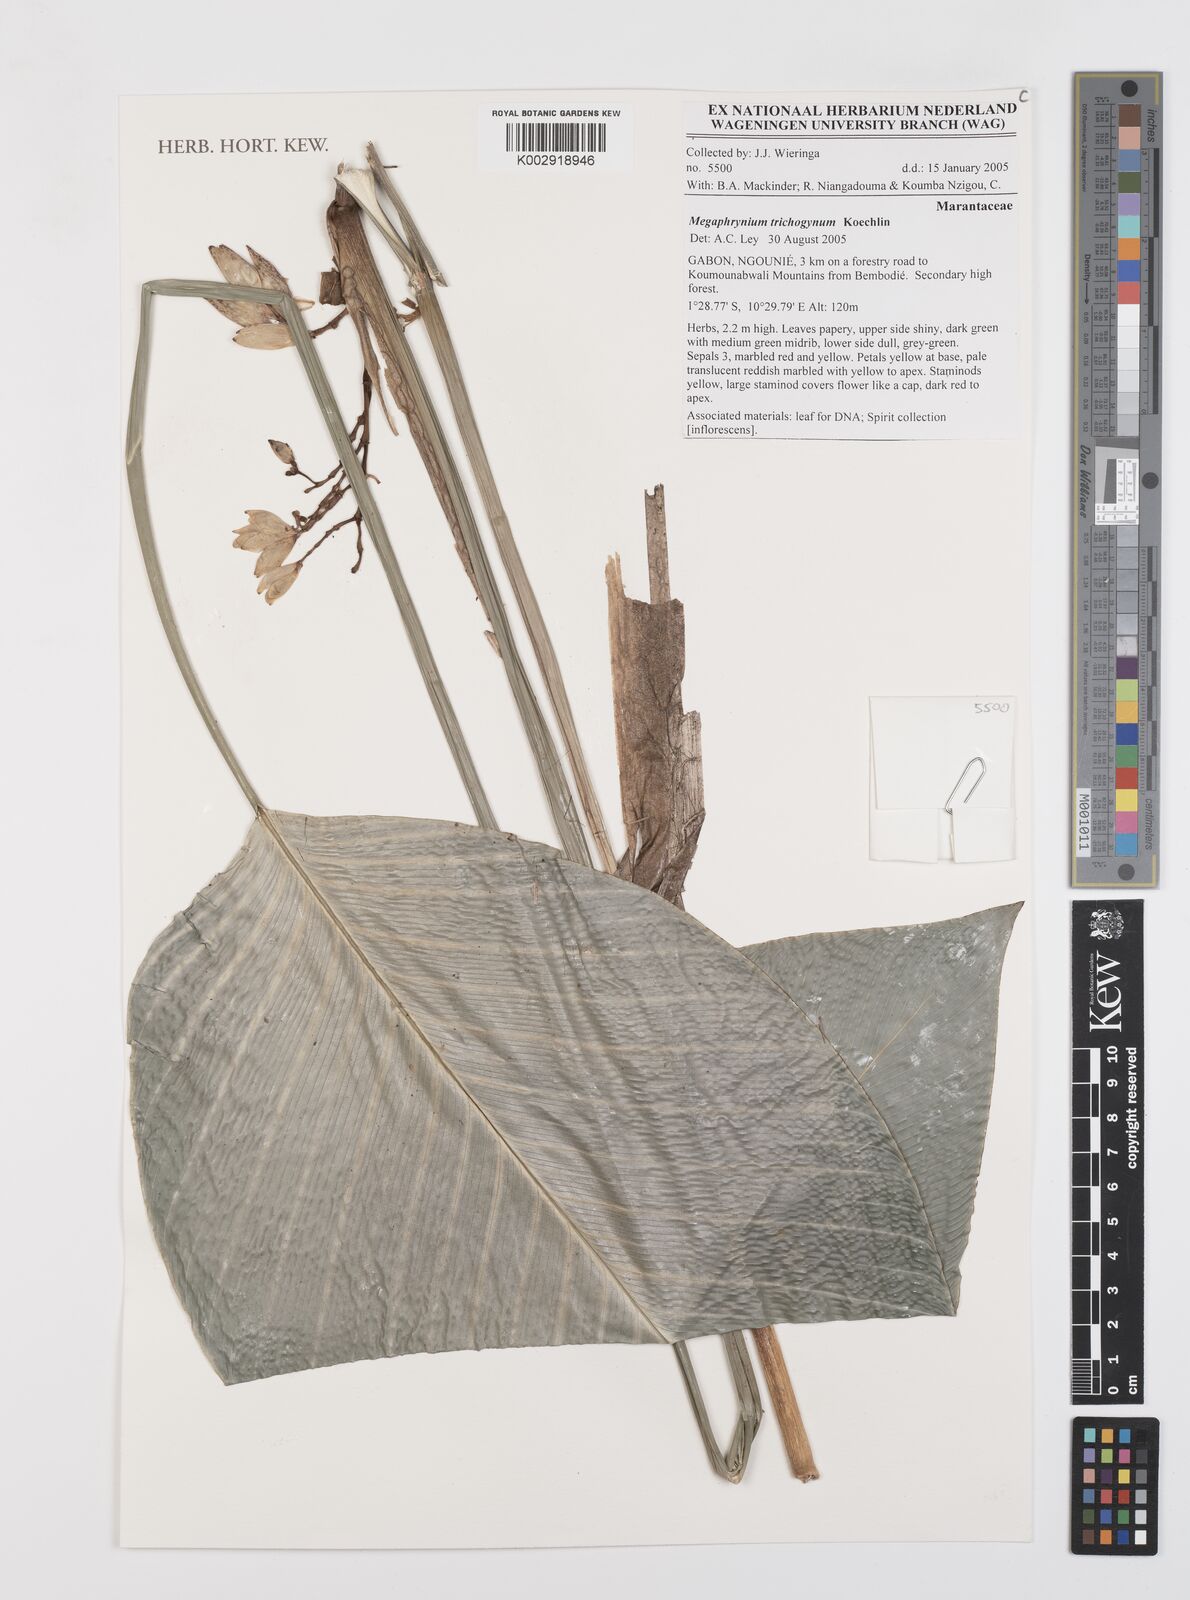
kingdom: Plantae
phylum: Tracheophyta
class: Liliopsida
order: Zingiberales
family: Marantaceae
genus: Megaphrynium
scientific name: Megaphrynium trichogynum
